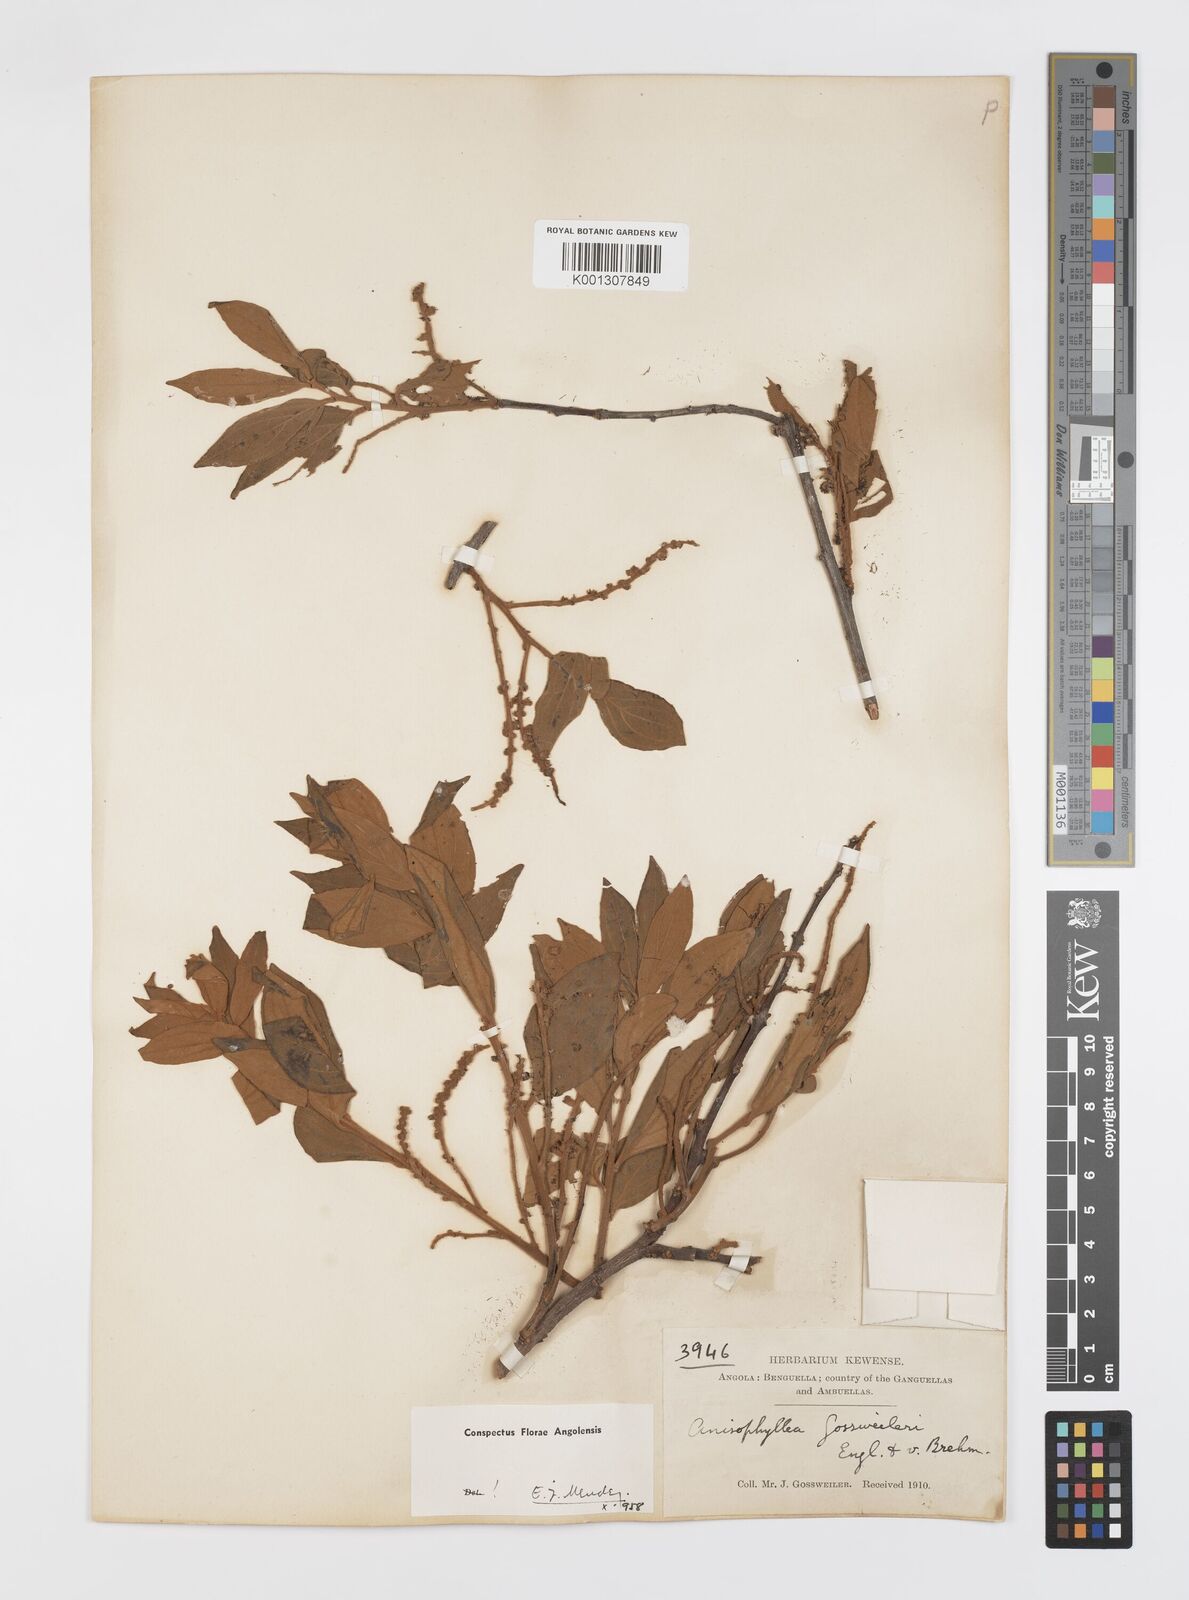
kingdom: Plantae
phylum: Tracheophyta
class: Magnoliopsida
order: Cucurbitales
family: Anisophylleaceae
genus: Anisophyllea
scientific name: Anisophyllea boehmii
